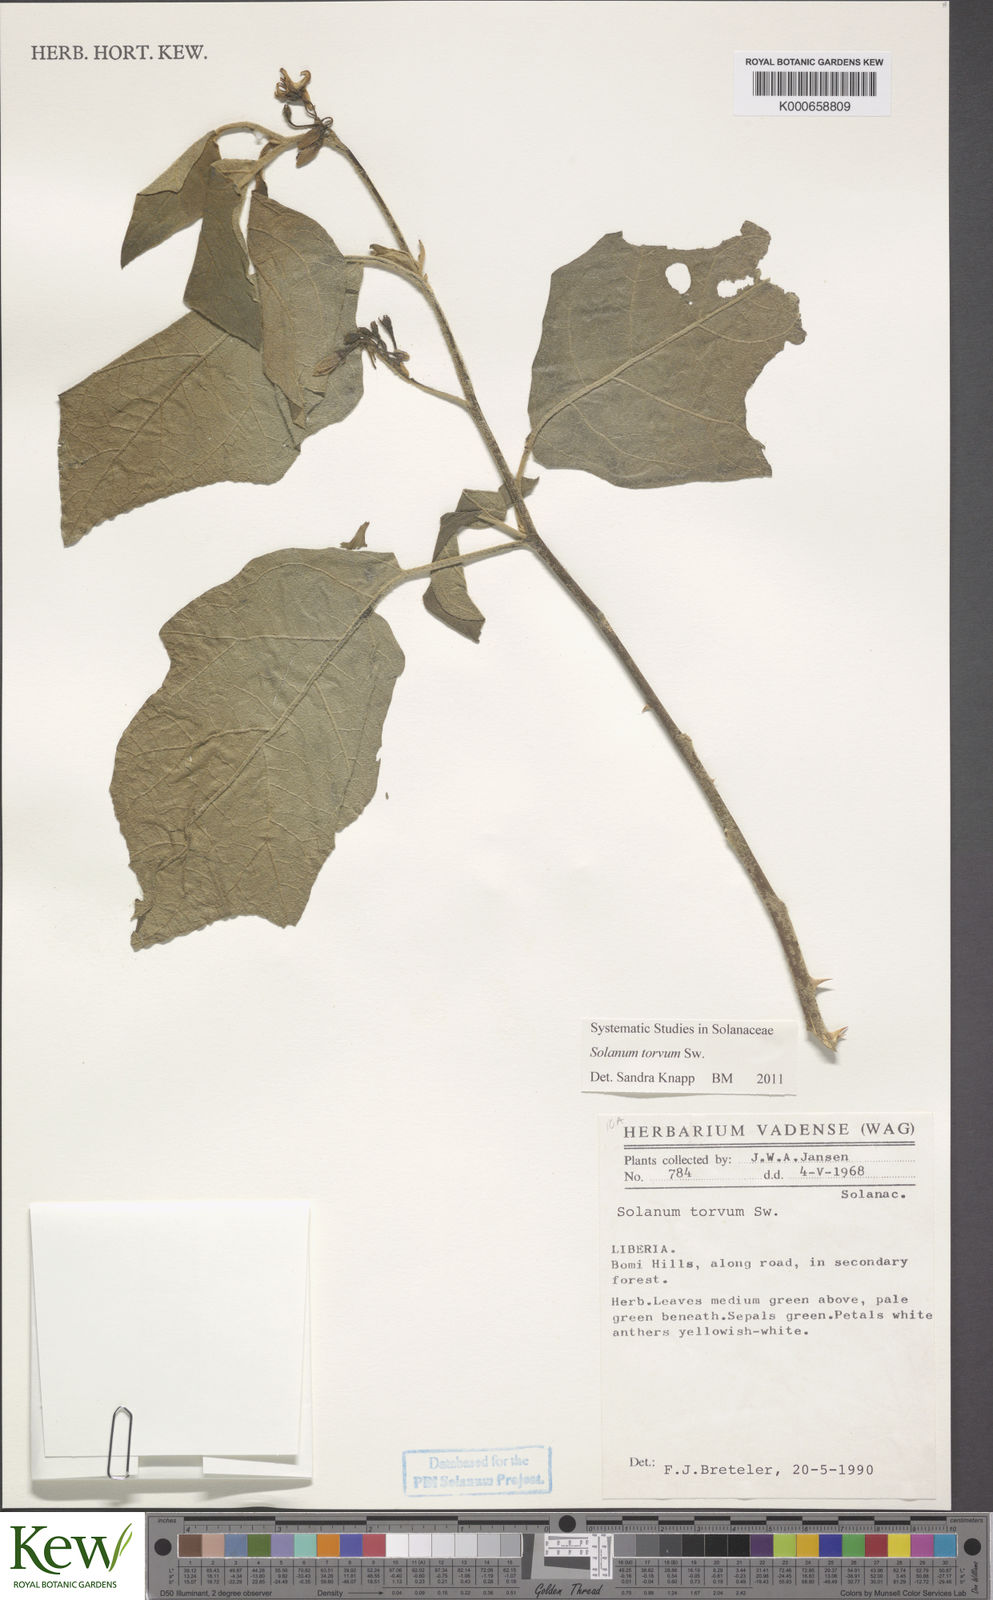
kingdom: Plantae
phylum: Tracheophyta
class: Magnoliopsida
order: Solanales
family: Solanaceae
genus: Solanum
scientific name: Solanum torvum
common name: Turkey berry
